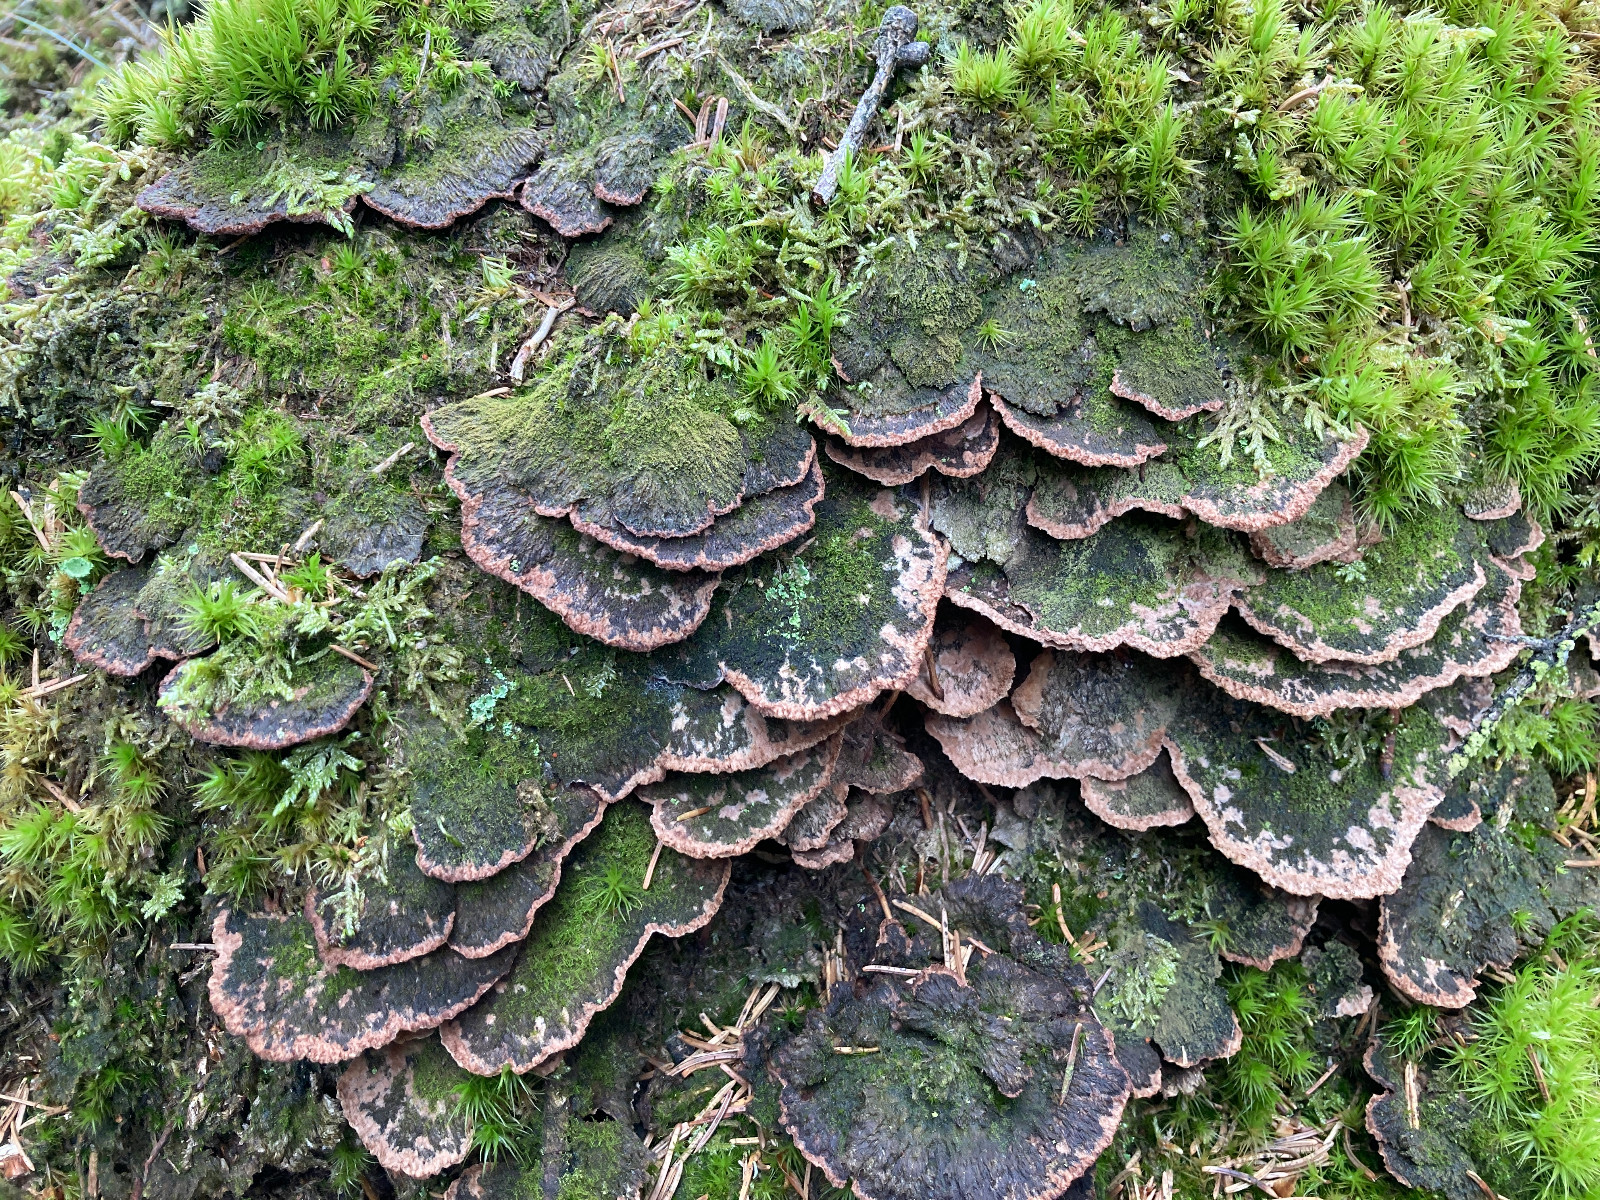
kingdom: Fungi
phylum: Basidiomycota
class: Agaricomycetes
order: Thelephorales
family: Thelephoraceae
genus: Thelephora
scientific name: Thelephora terrestris
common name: fliget frynsesvamp
